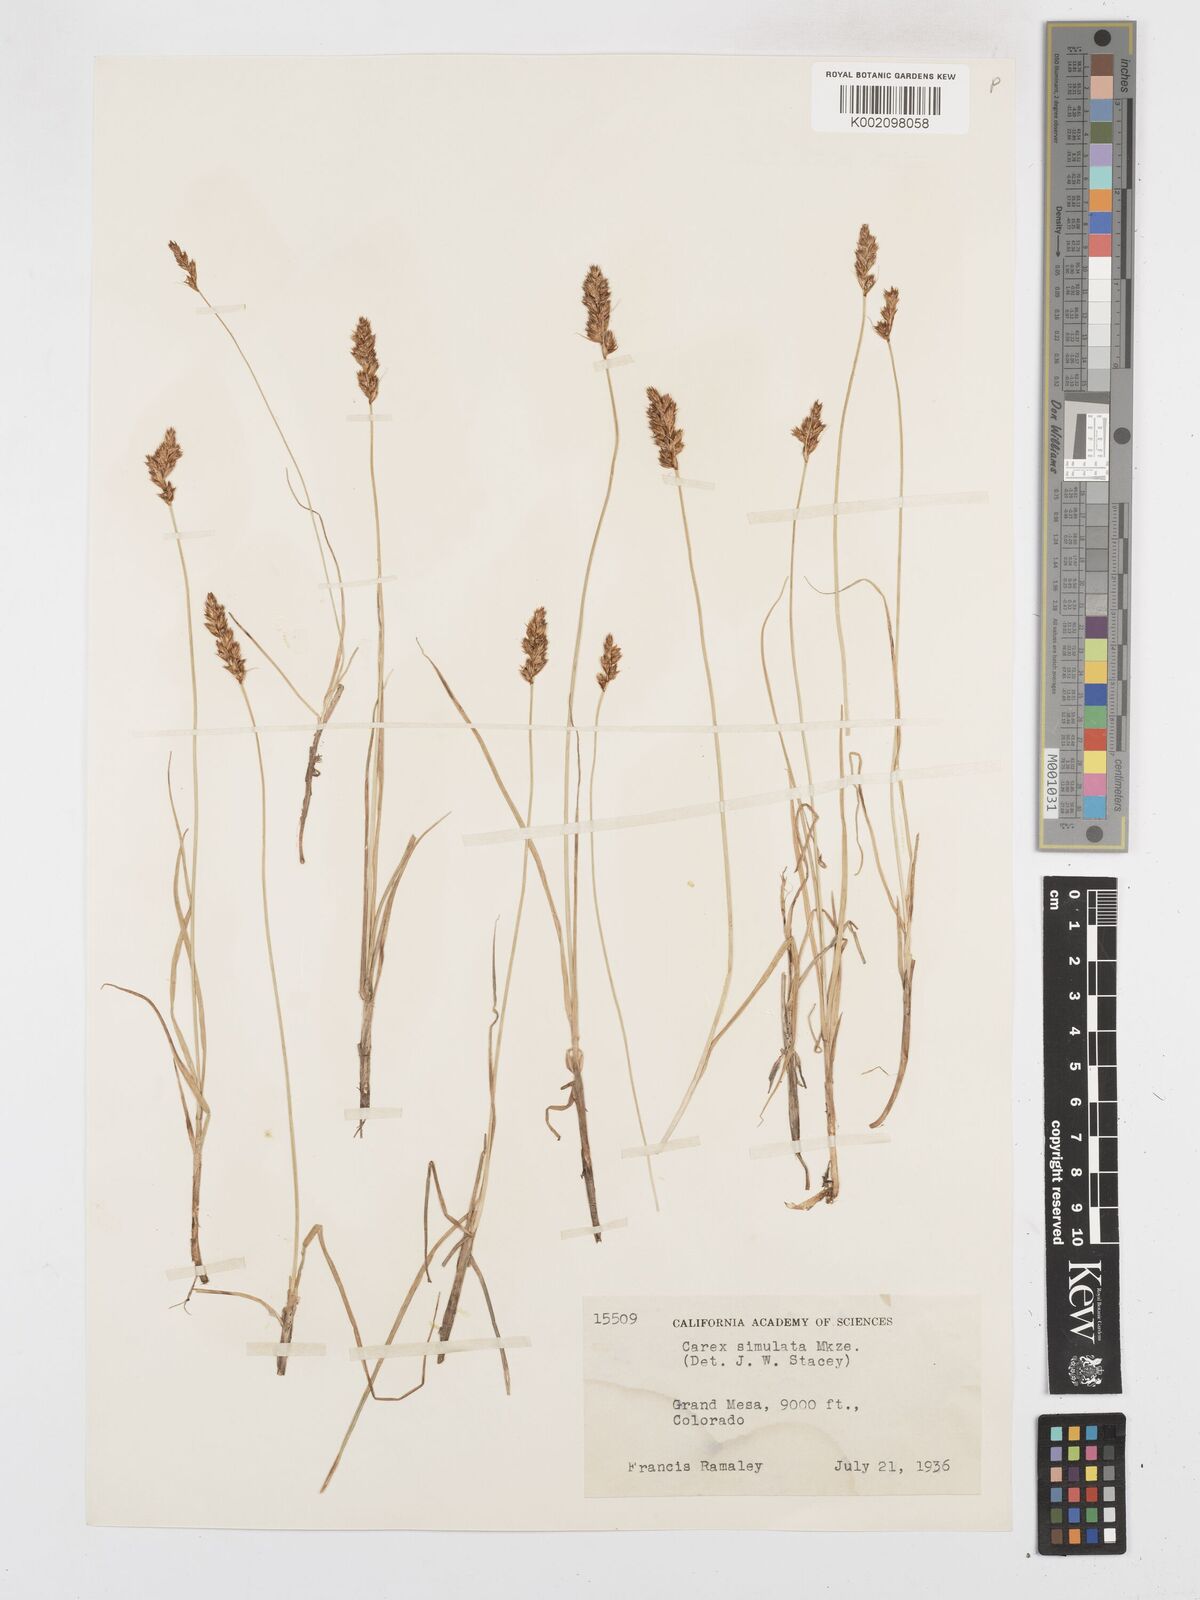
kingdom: Plantae
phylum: Tracheophyta
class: Liliopsida
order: Poales
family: Cyperaceae
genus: Carex
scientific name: Carex simulata
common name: Analogue sedge
